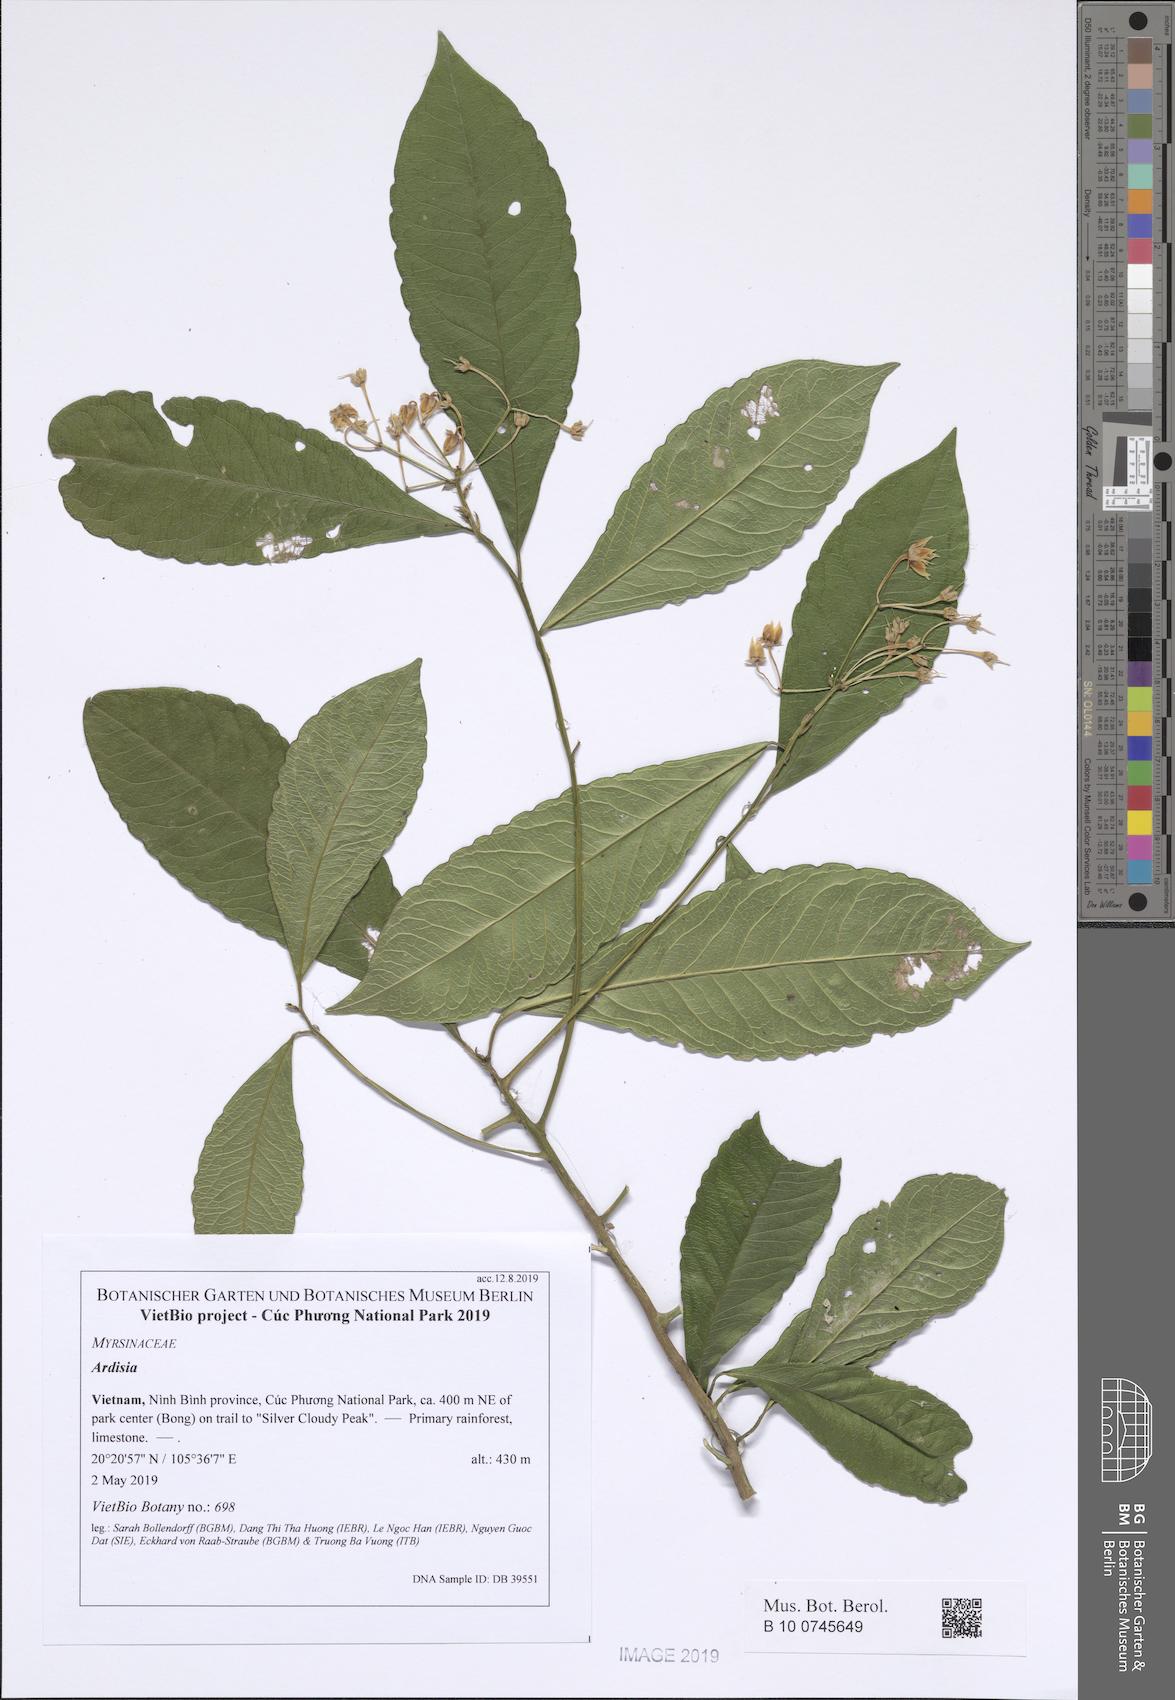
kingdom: Plantae
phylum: Tracheophyta
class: Magnoliopsida
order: Ericales
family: Primulaceae
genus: Ardisia
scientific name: Ardisia merrillii
